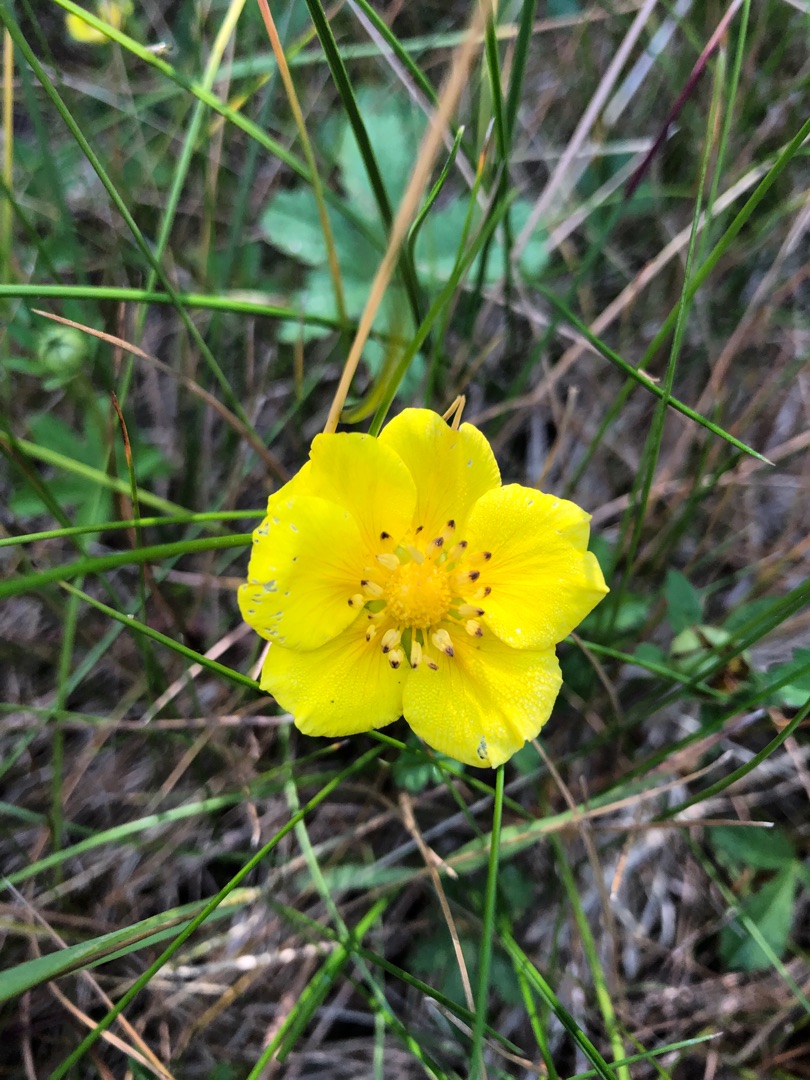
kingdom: Plantae
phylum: Tracheophyta
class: Magnoliopsida
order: Rosales
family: Rosaceae
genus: Potentilla
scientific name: Potentilla reptans
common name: Krybende potentil
